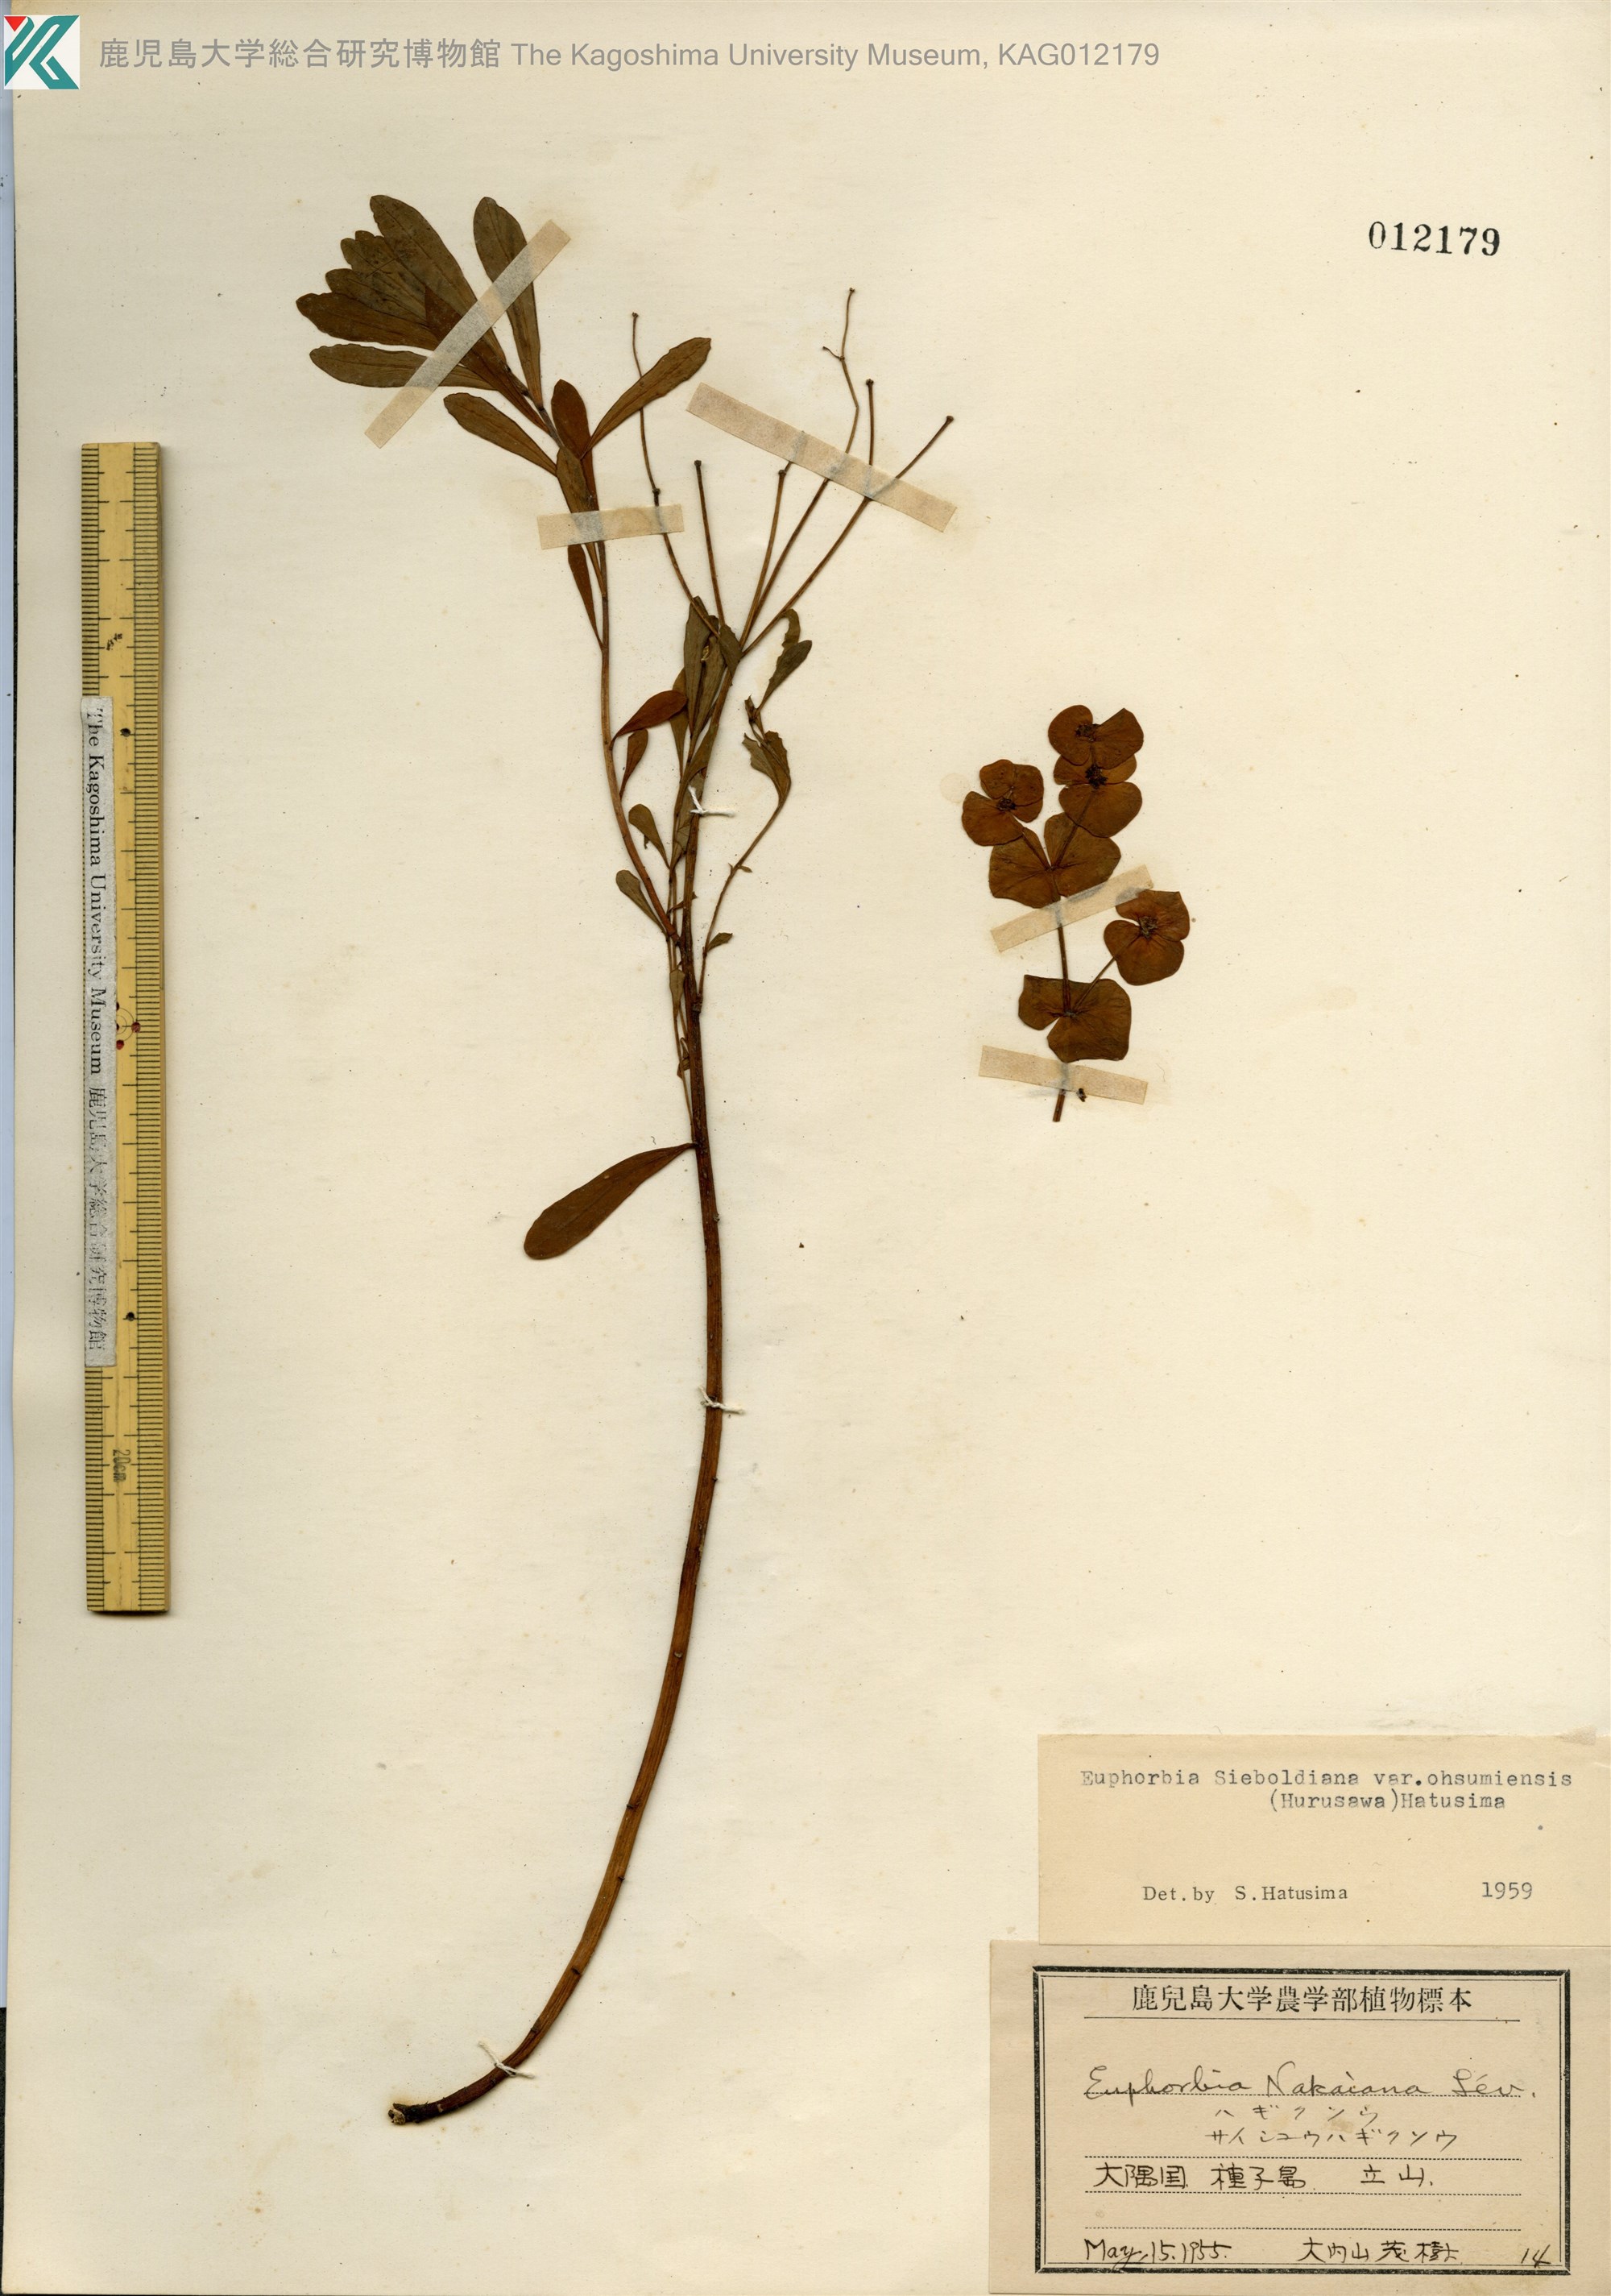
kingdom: Plantae
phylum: Tracheophyta
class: Magnoliopsida
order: Malpighiales
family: Euphorbiaceae
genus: Euphorbia
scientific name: Euphorbia sieboldiana
